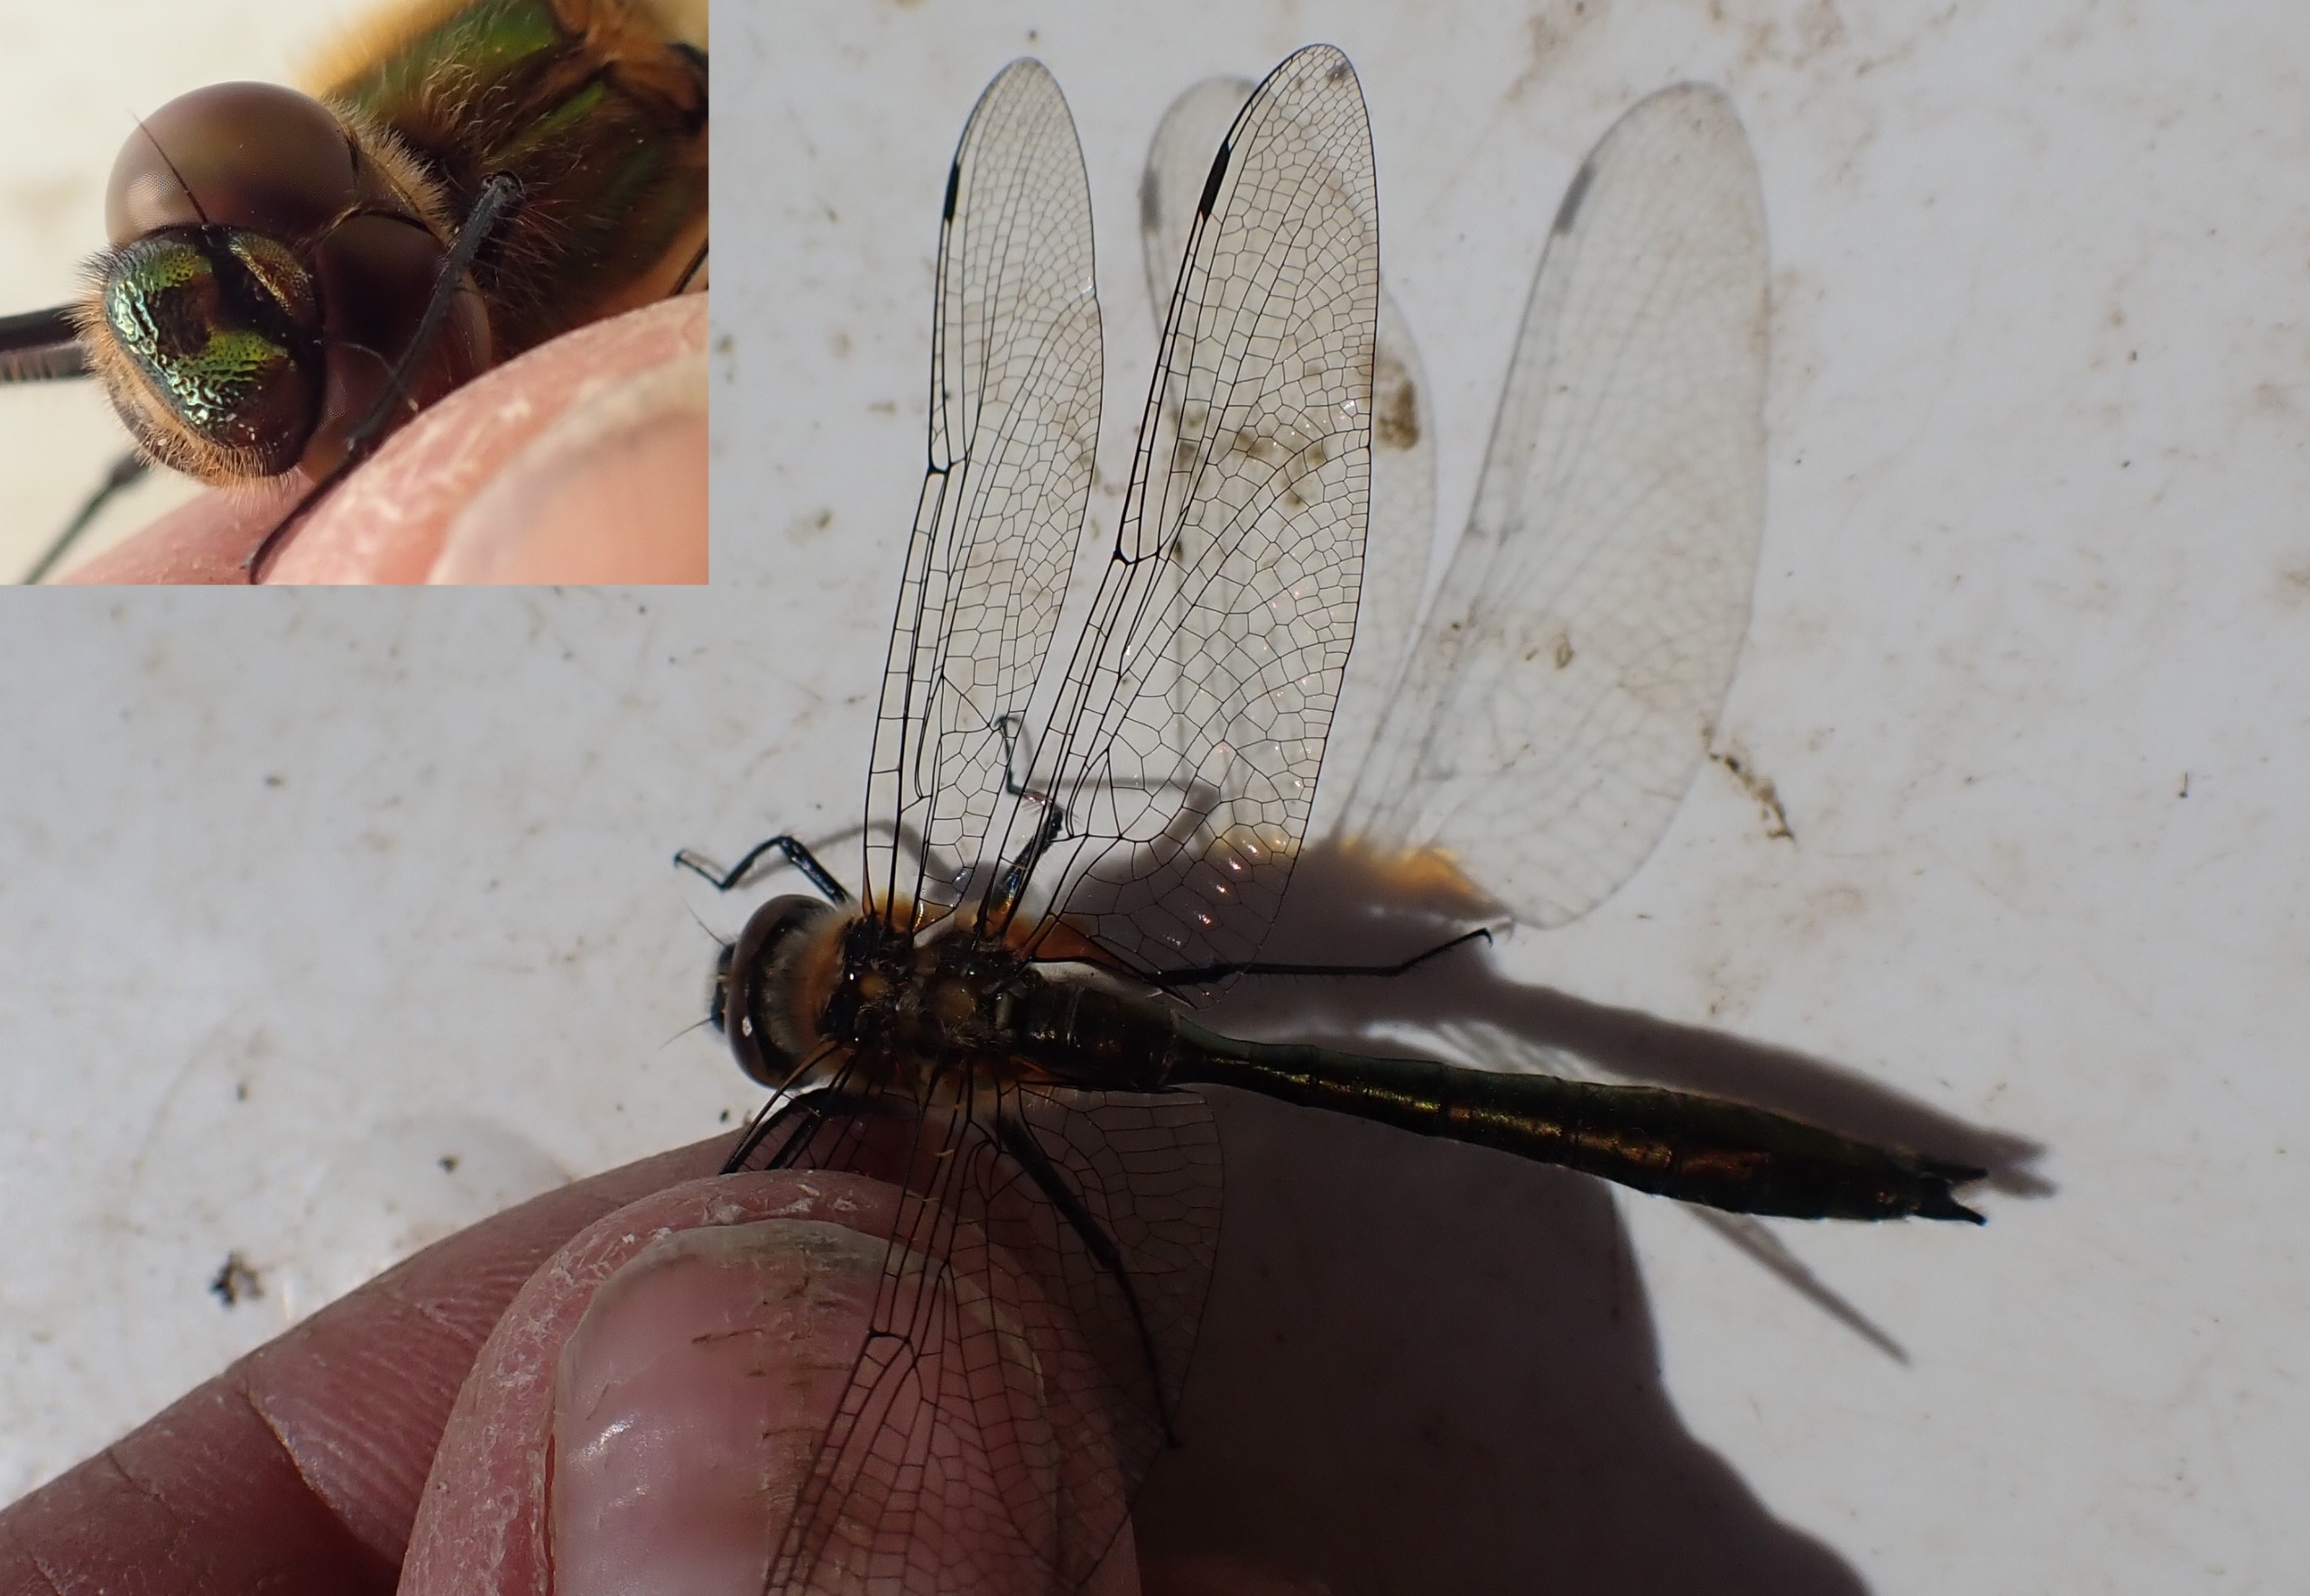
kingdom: Animalia
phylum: Arthropoda
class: Insecta
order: Odonata
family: Corduliidae
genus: Cordulia
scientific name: Cordulia aenea
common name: Grøn smaragdlibel
